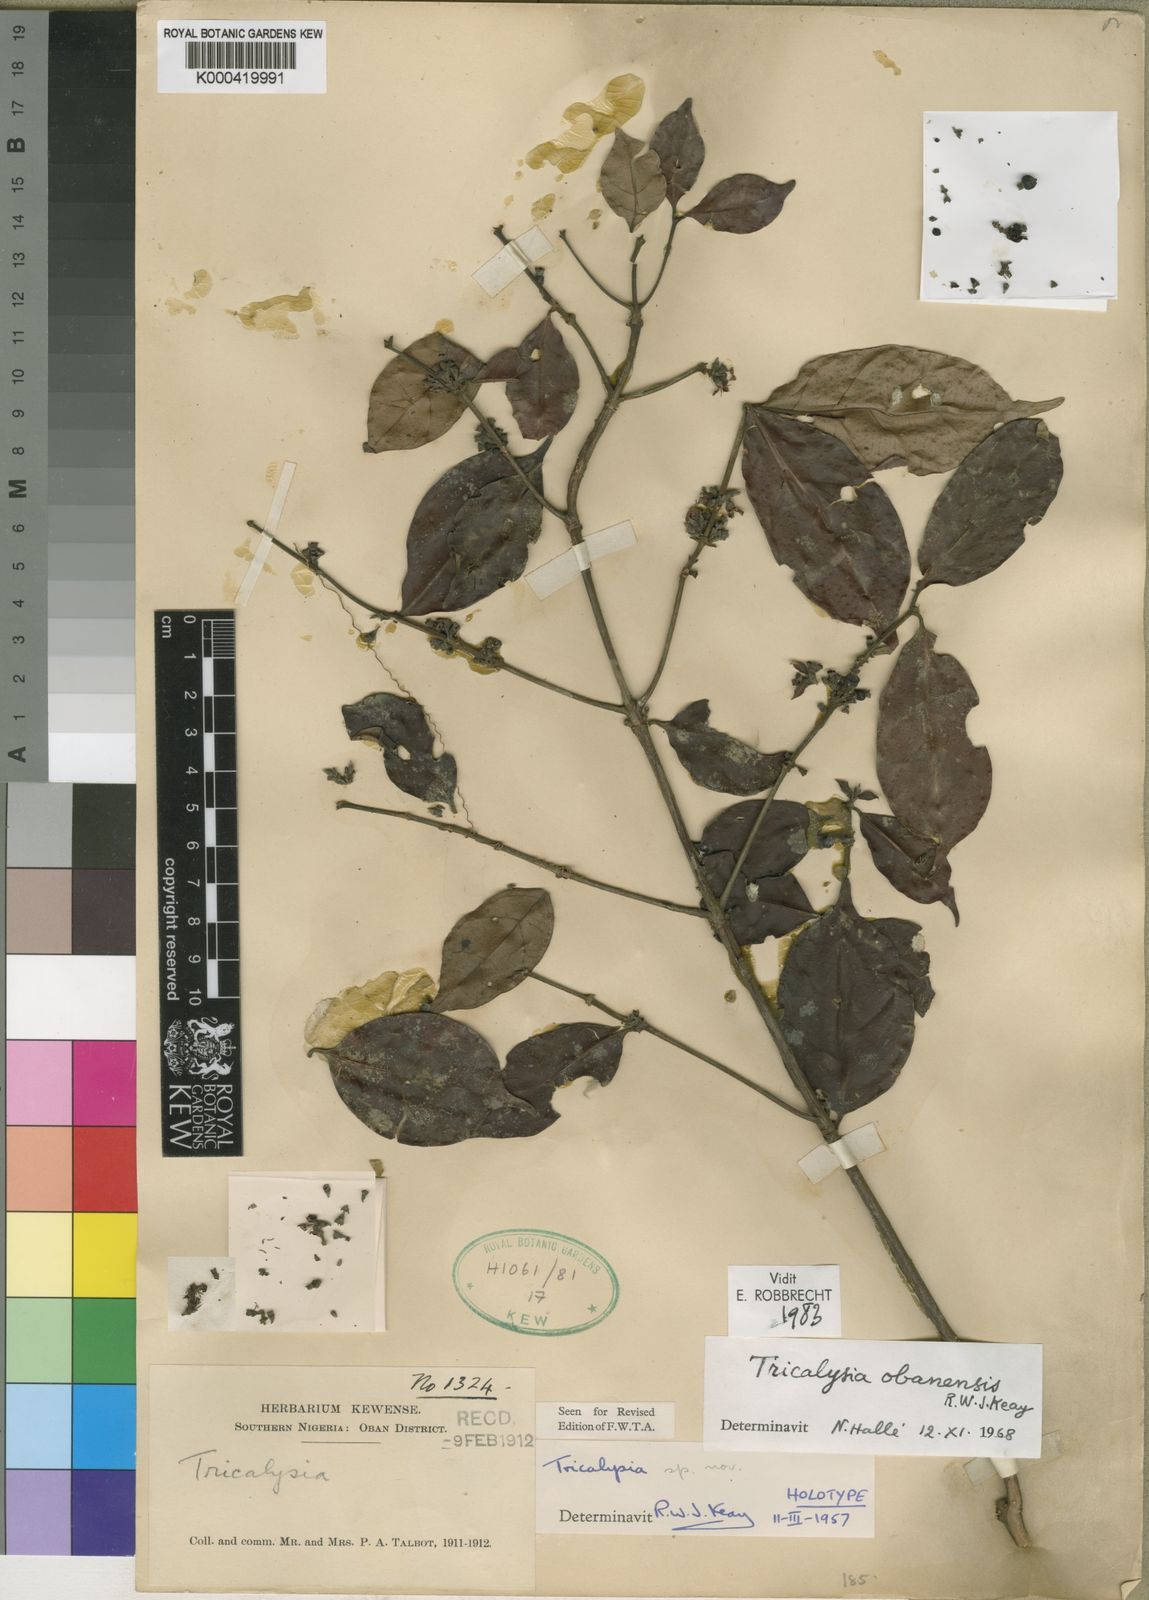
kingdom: Plantae
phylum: Tracheophyta
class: Magnoliopsida
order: Gentianales
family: Rubiaceae
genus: Tricalysia
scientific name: Tricalysia obanensis
